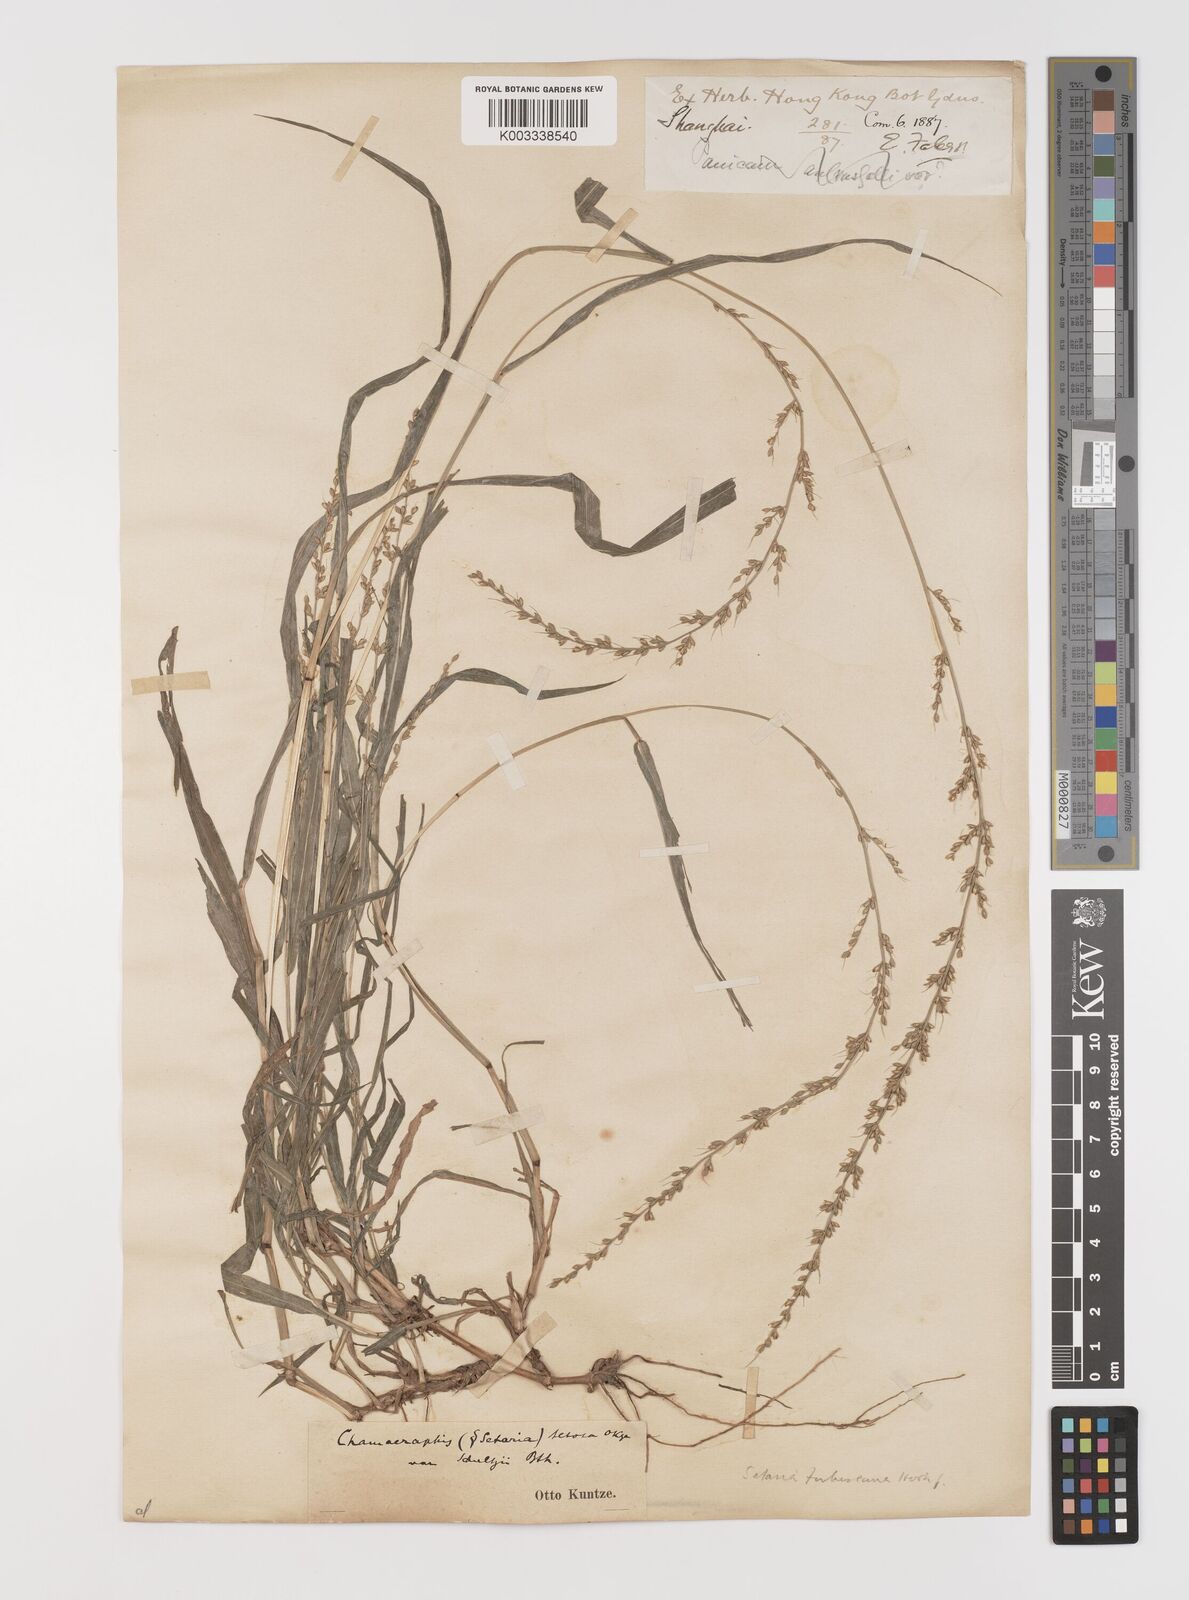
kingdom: Plantae
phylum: Tracheophyta
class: Liliopsida
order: Poales
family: Poaceae
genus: Setaria
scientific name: Setaria chondrachne
